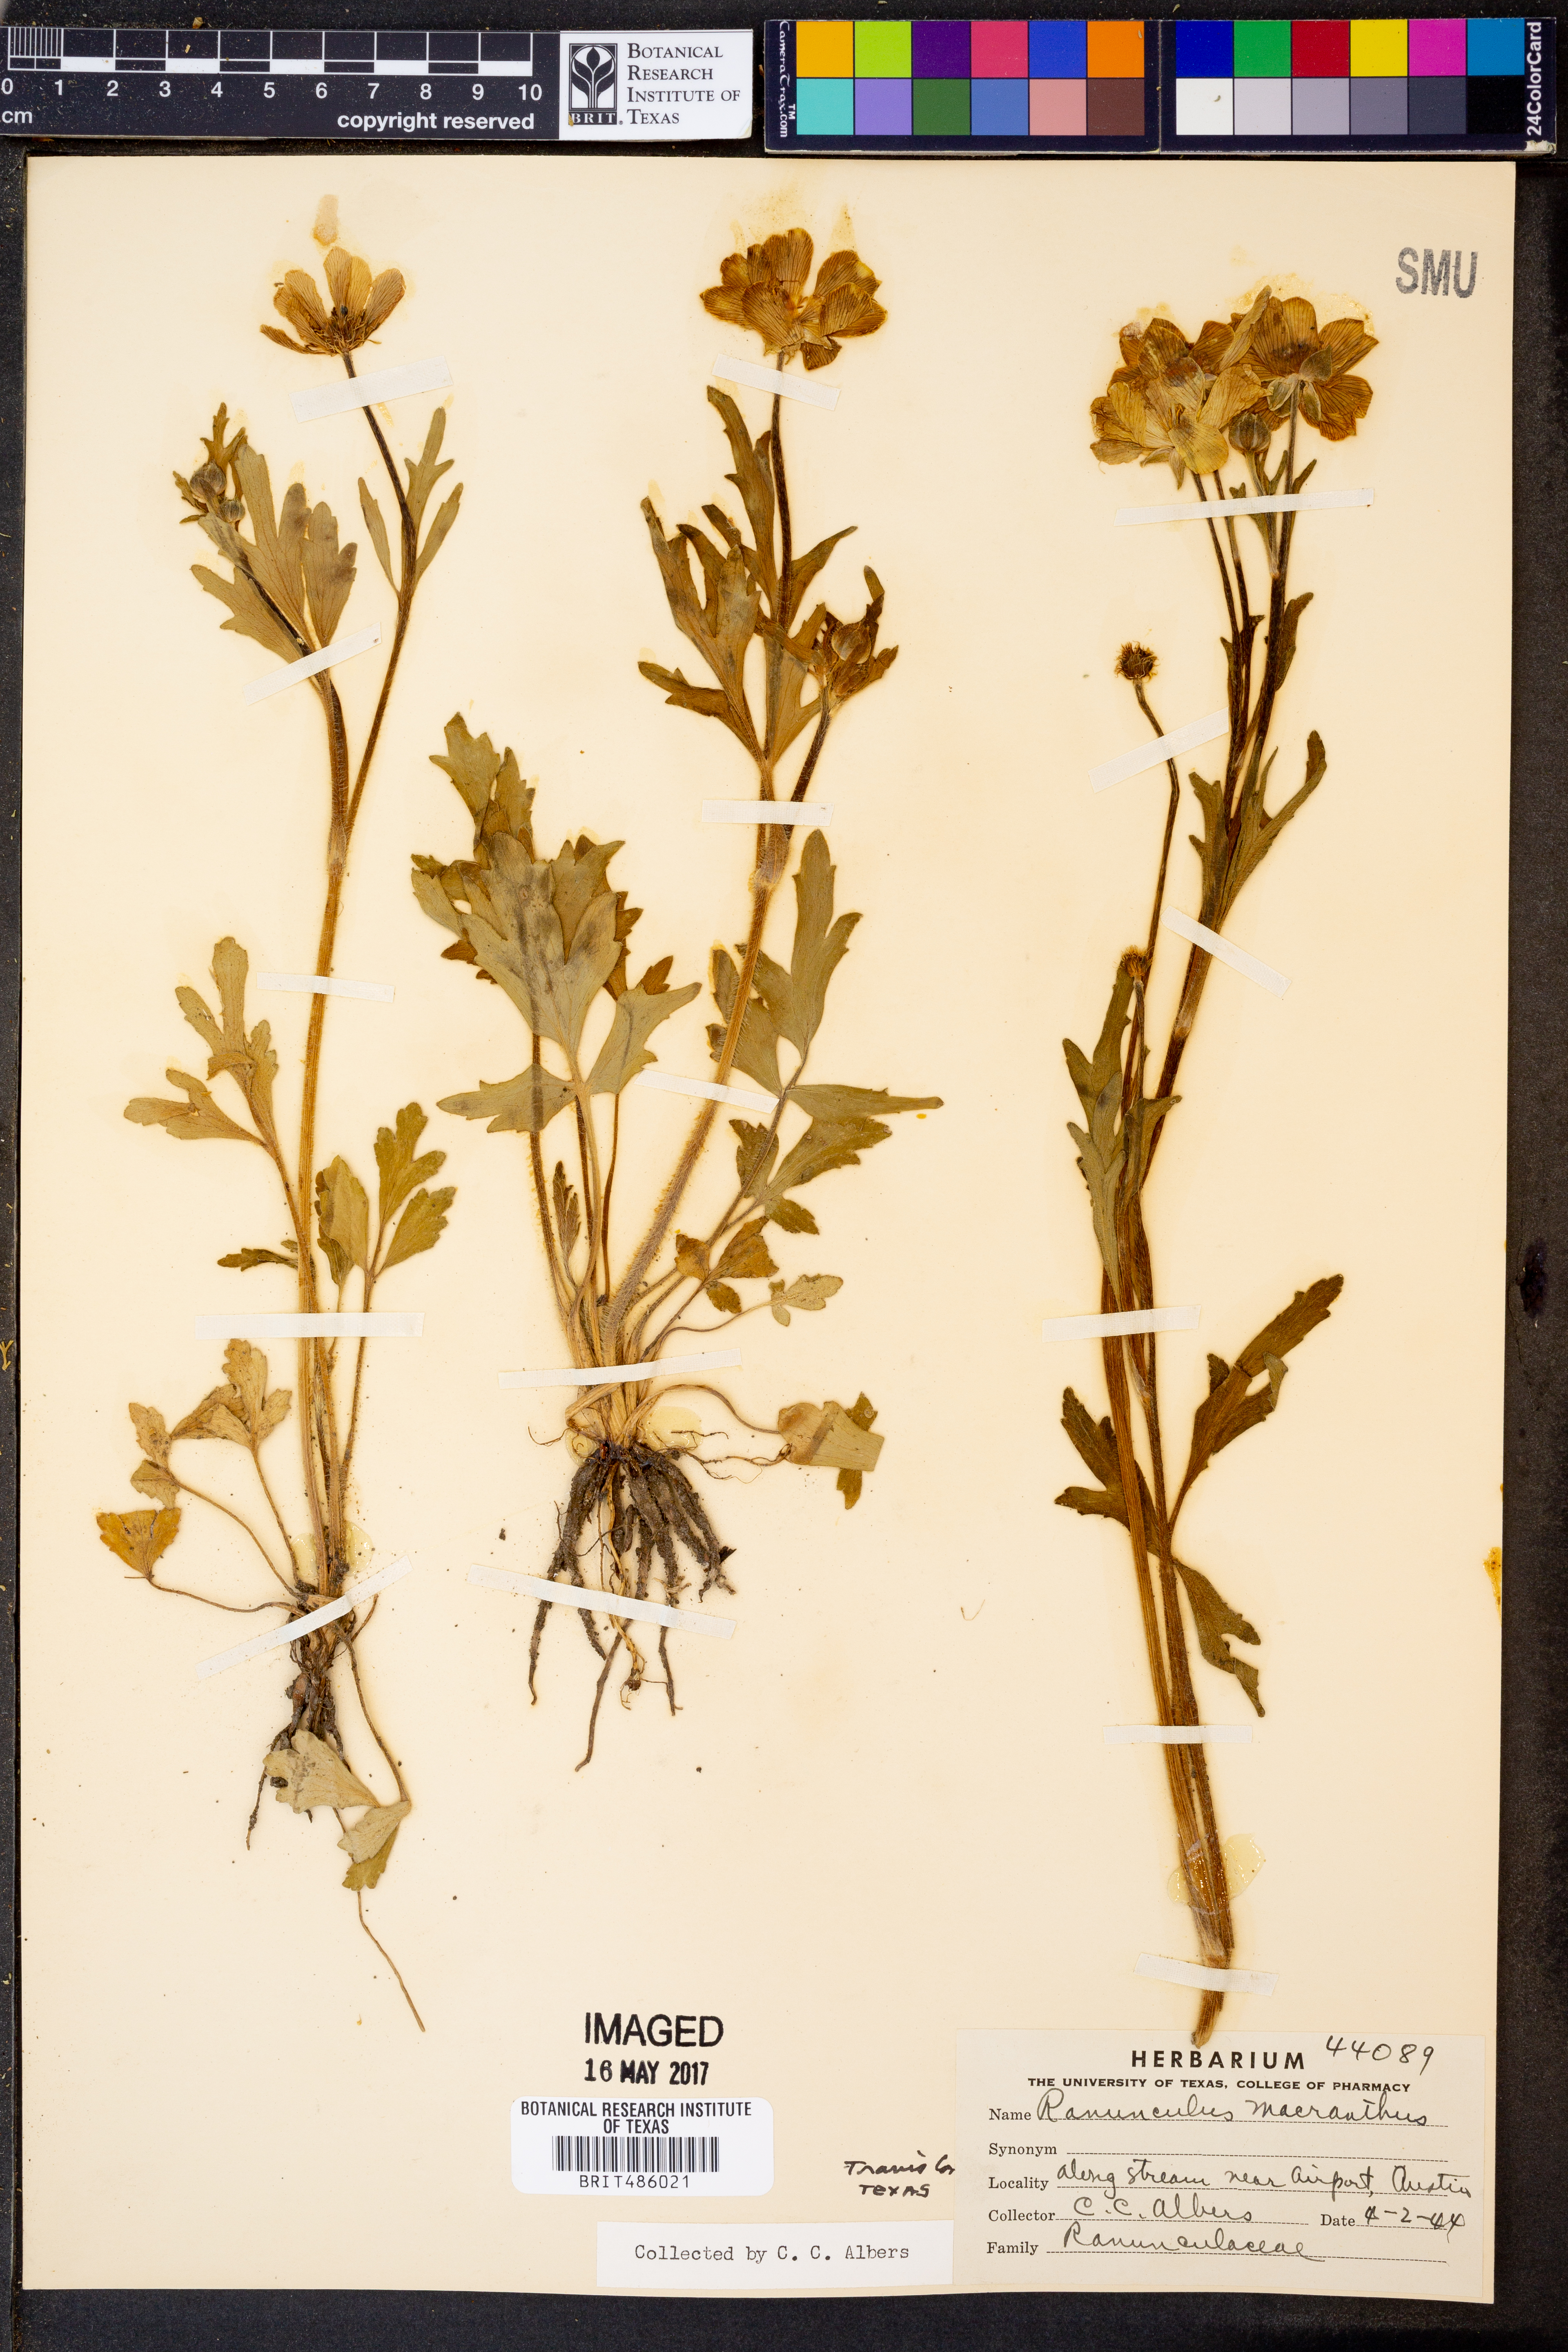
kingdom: Plantae
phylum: Tracheophyta
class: Magnoliopsida
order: Ranunculales
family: Ranunculaceae
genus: Ranunculus
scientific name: Ranunculus macranthus
